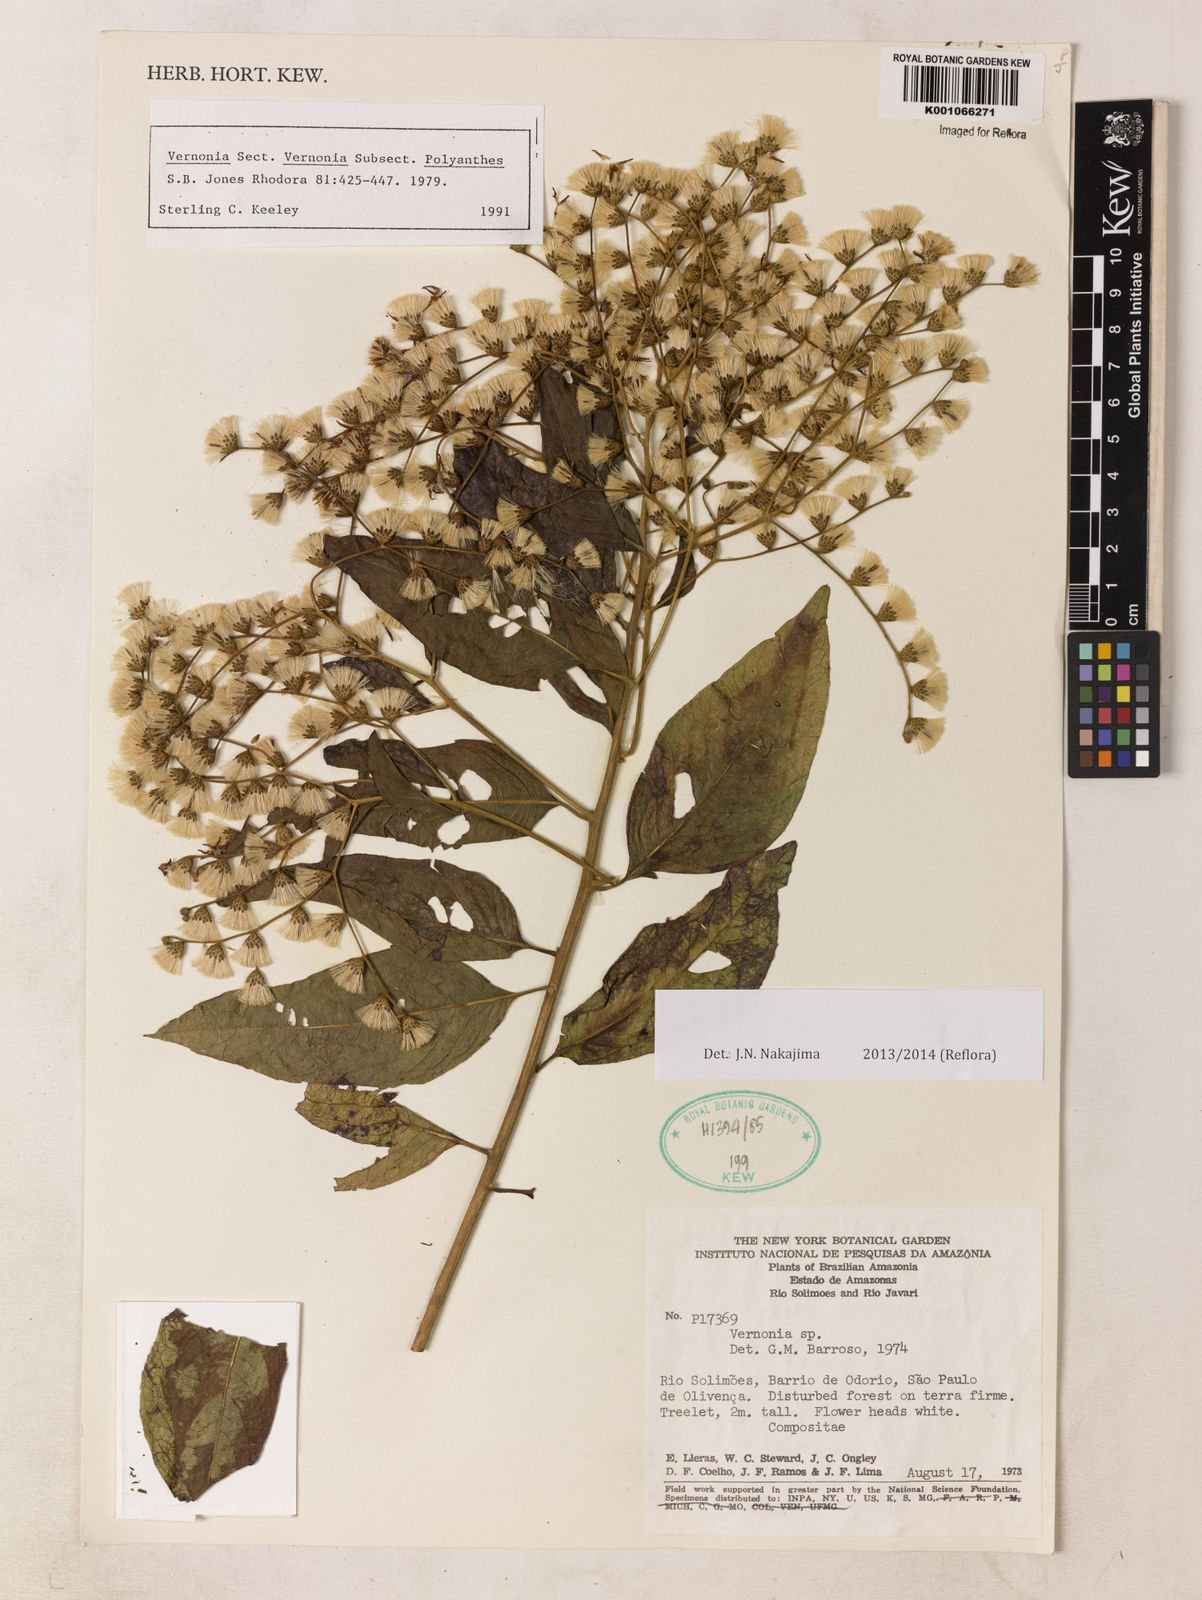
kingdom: Plantae
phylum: Tracheophyta
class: Magnoliopsida
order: Asterales
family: Asteraceae
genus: Vernonia
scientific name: Vernonia
